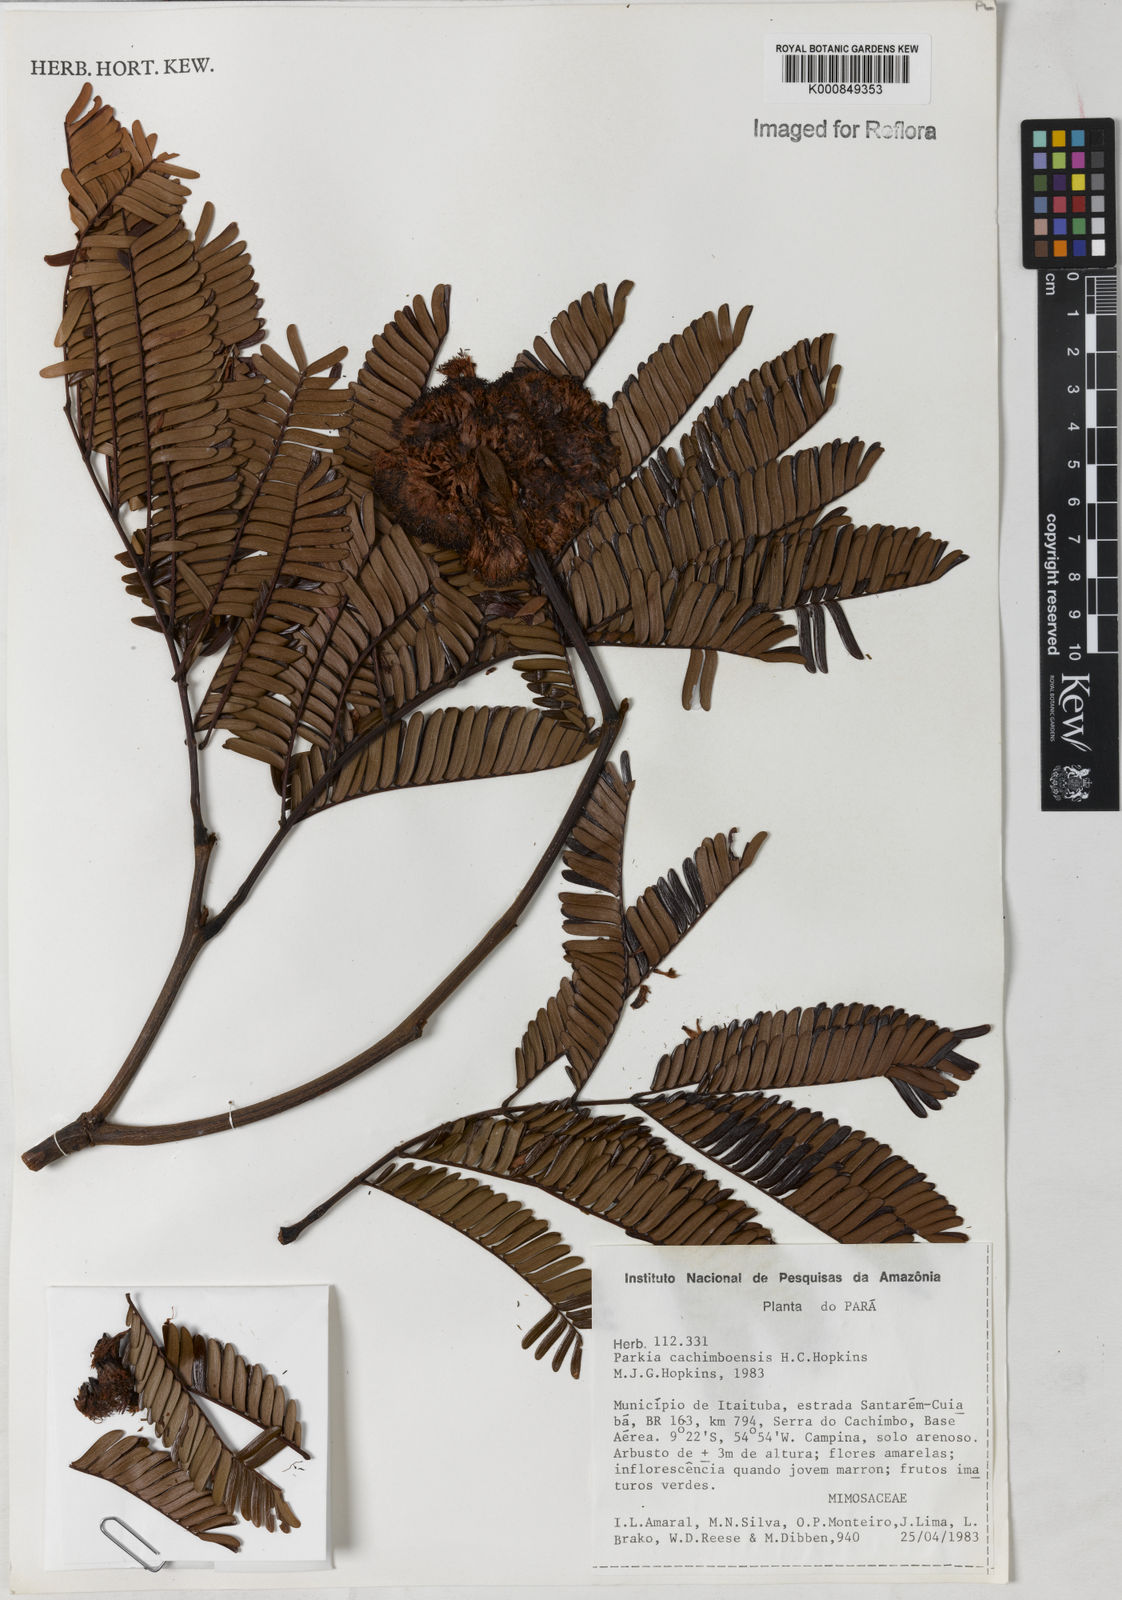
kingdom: Plantae
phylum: Tracheophyta
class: Magnoliopsida
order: Fabales
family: Fabaceae
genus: Parkia
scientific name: Parkia cachimboensis
